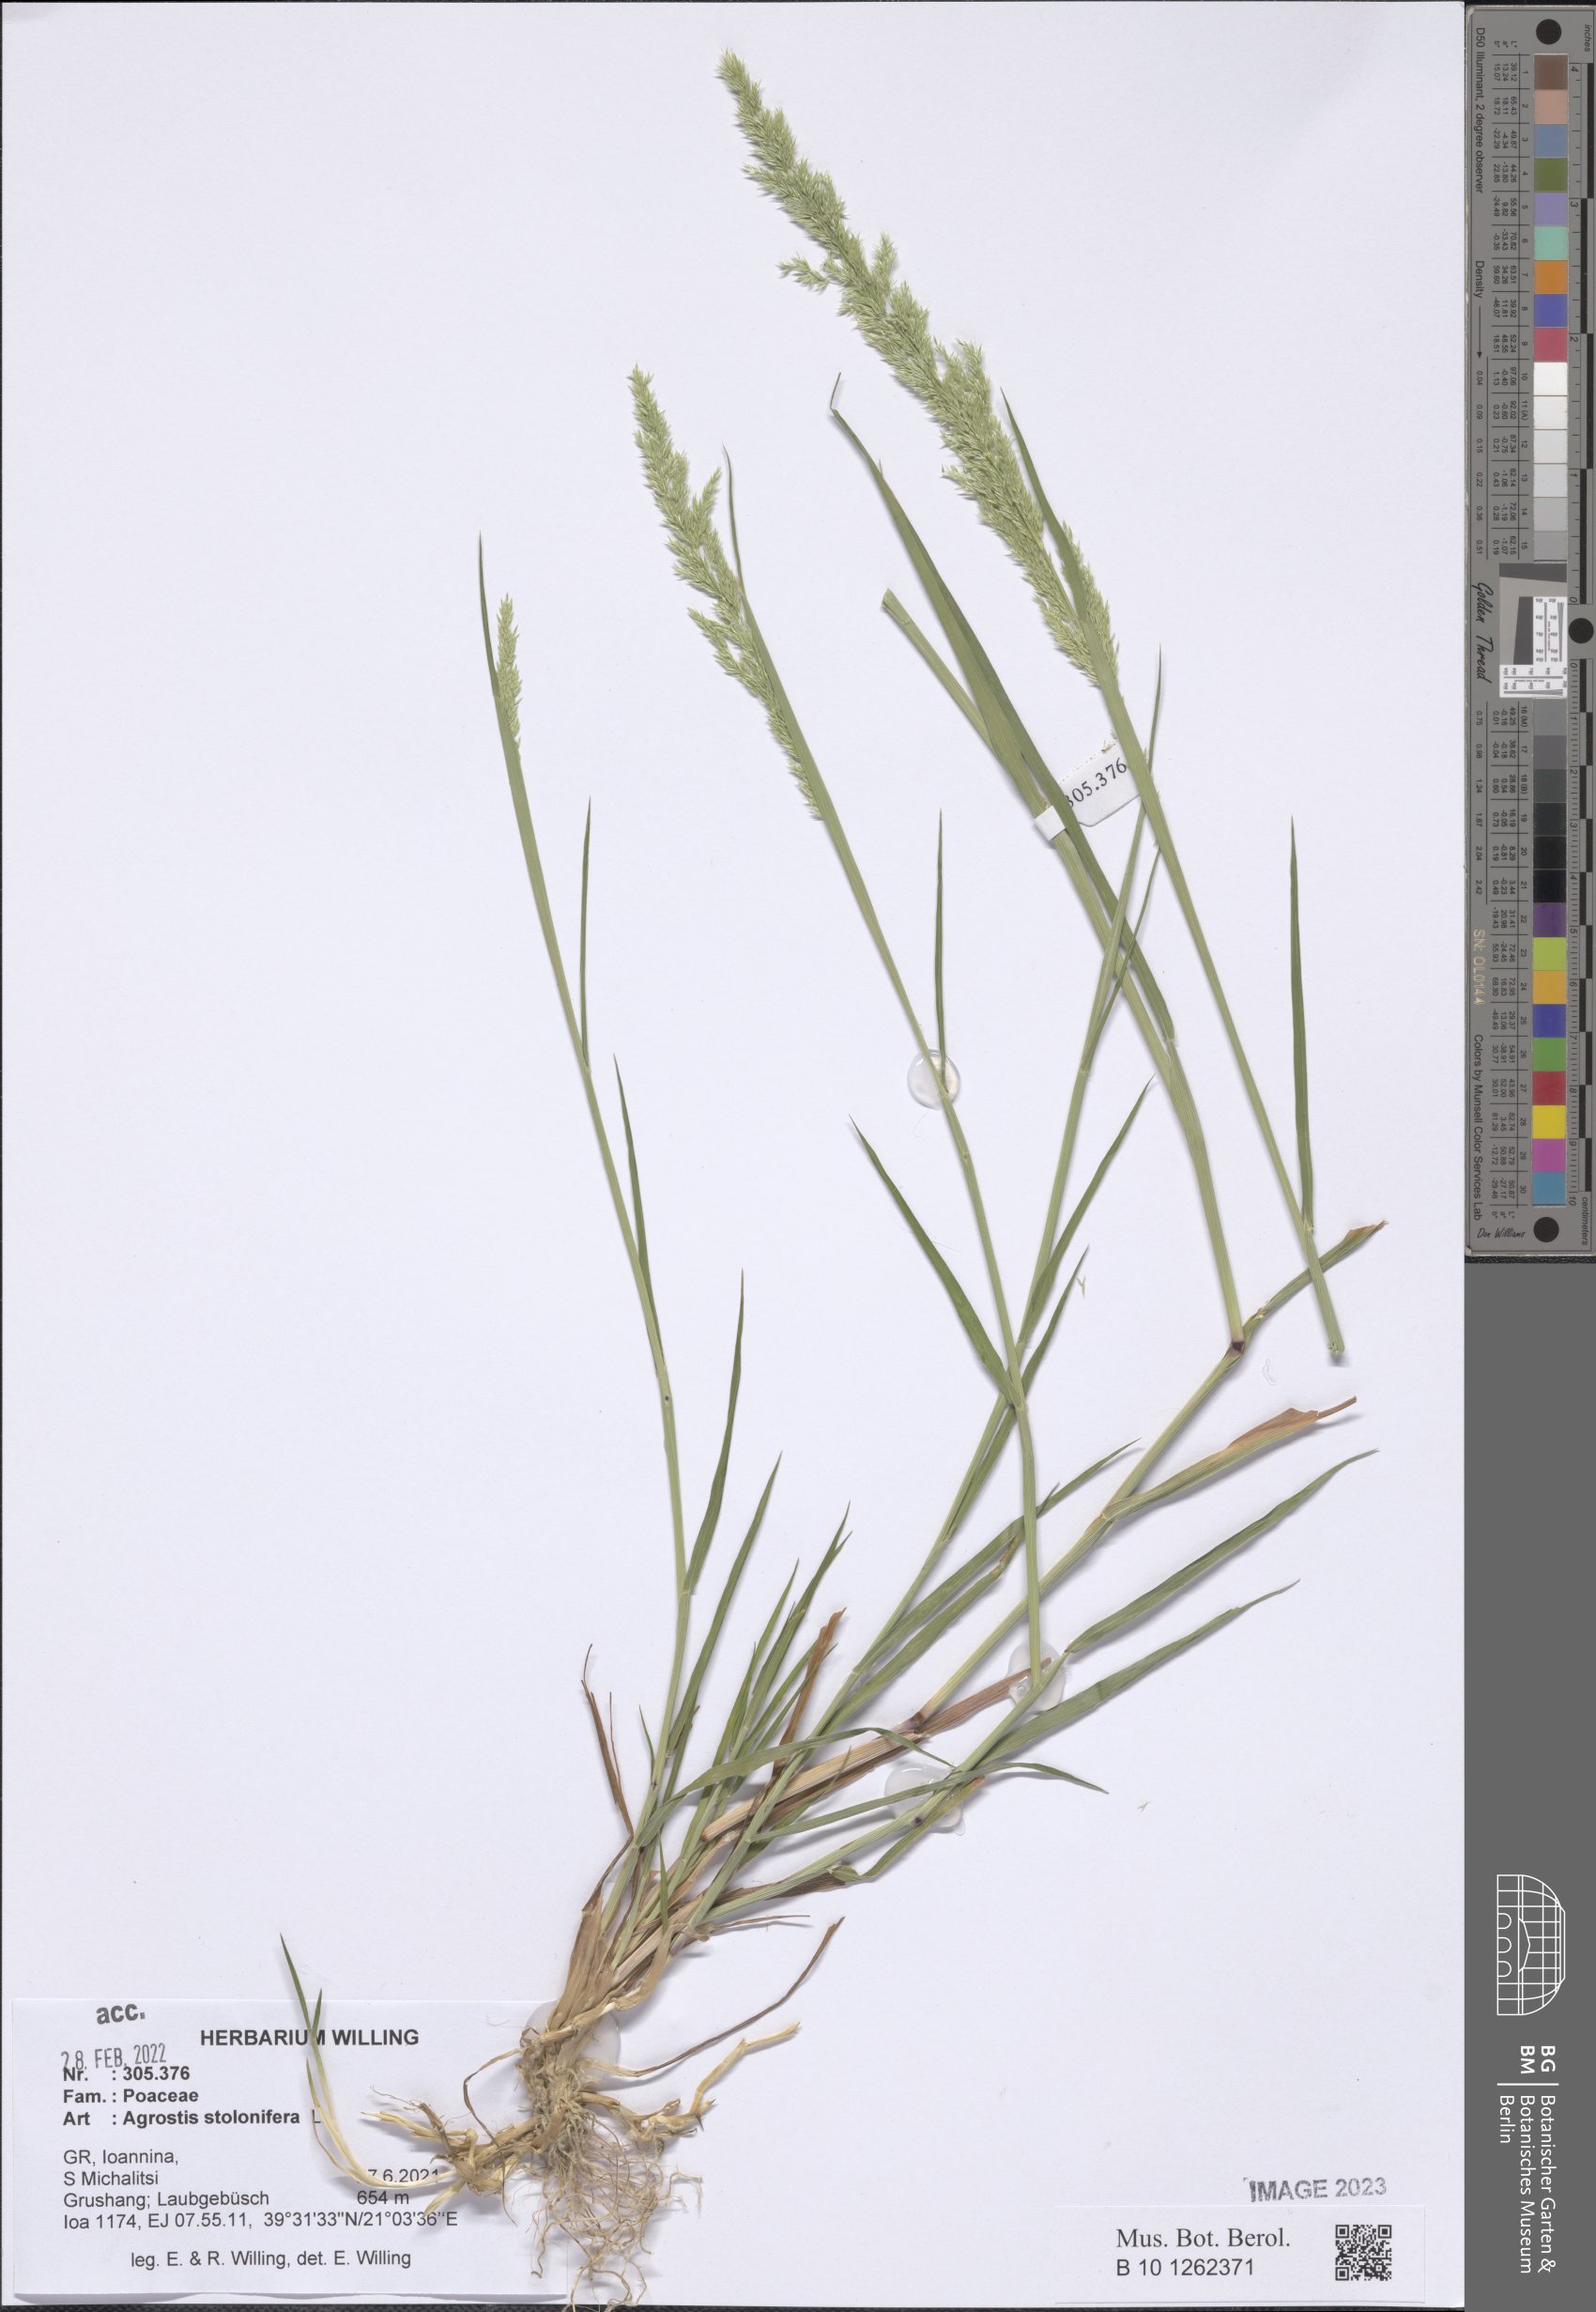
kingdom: Plantae
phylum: Tracheophyta
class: Liliopsida
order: Poales
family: Poaceae
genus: Agrostis
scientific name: Agrostis stolonifera
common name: Creeping bentgrass
